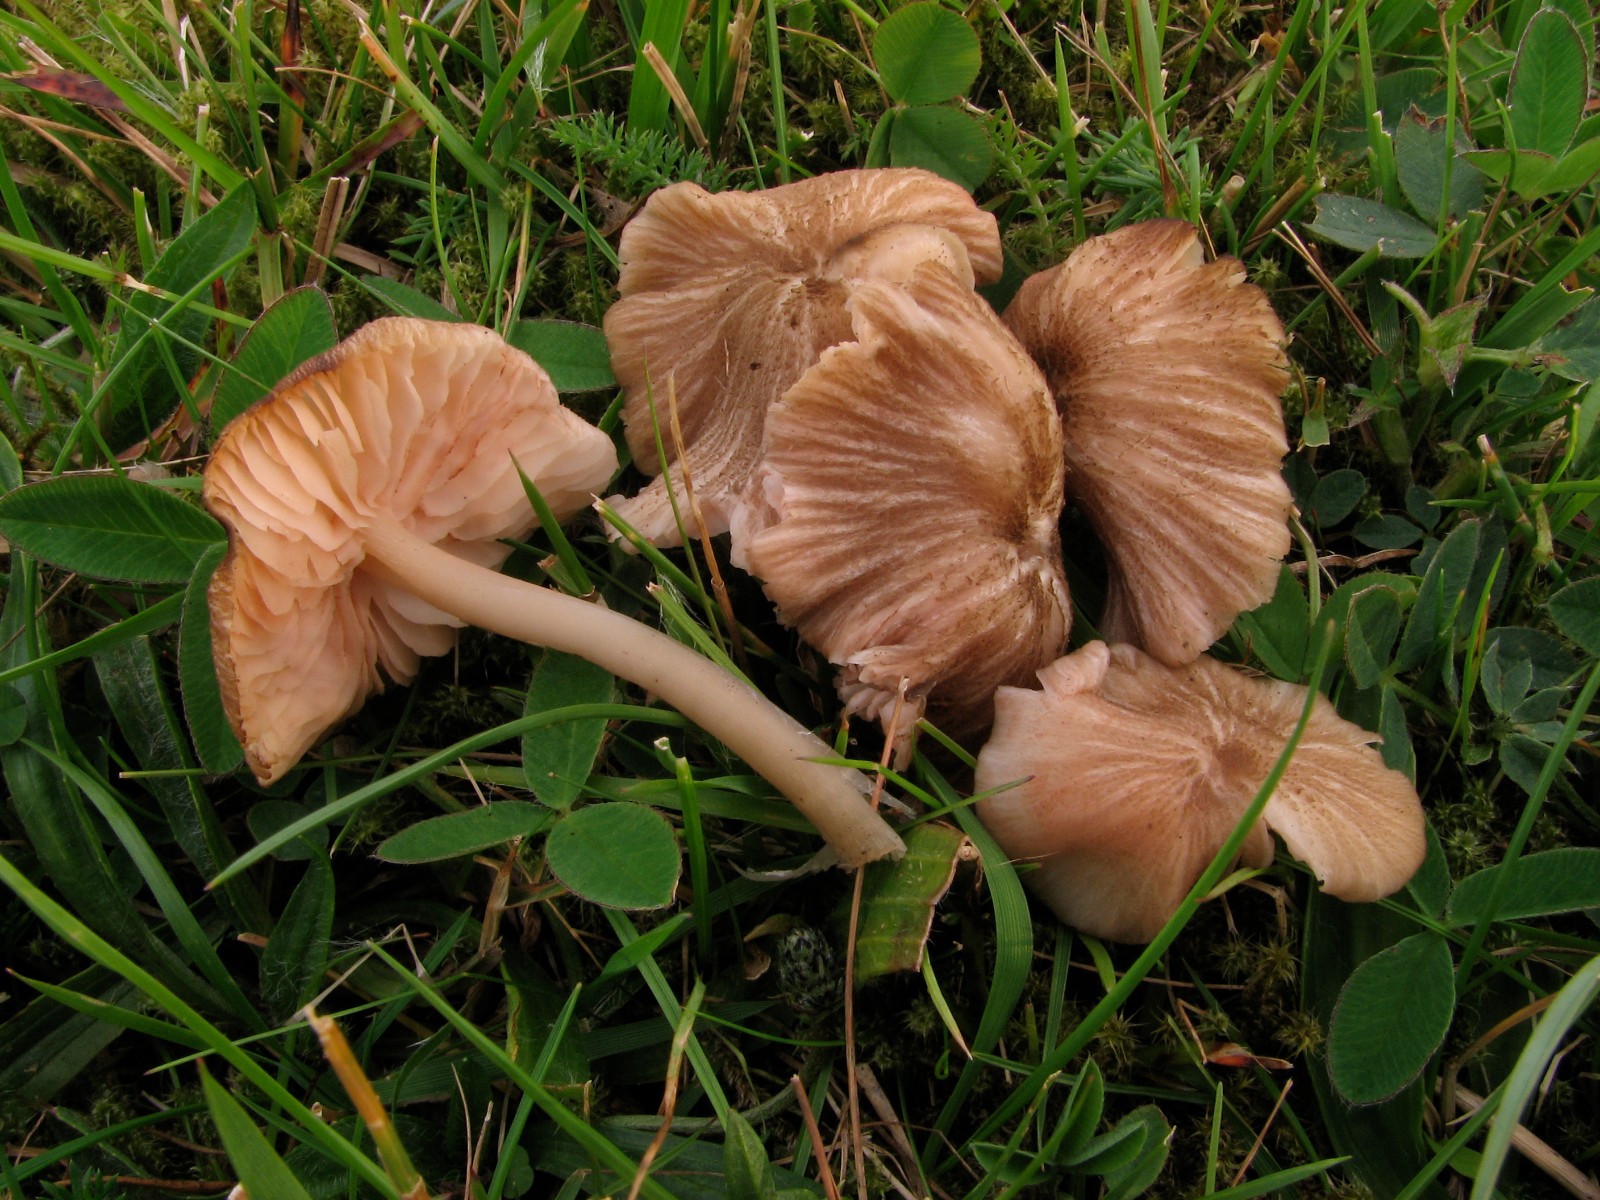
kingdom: Fungi
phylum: Basidiomycota
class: Agaricomycetes
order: Agaricales
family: Entolomataceae
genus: Entoloma
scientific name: Entoloma ochromicaceum
